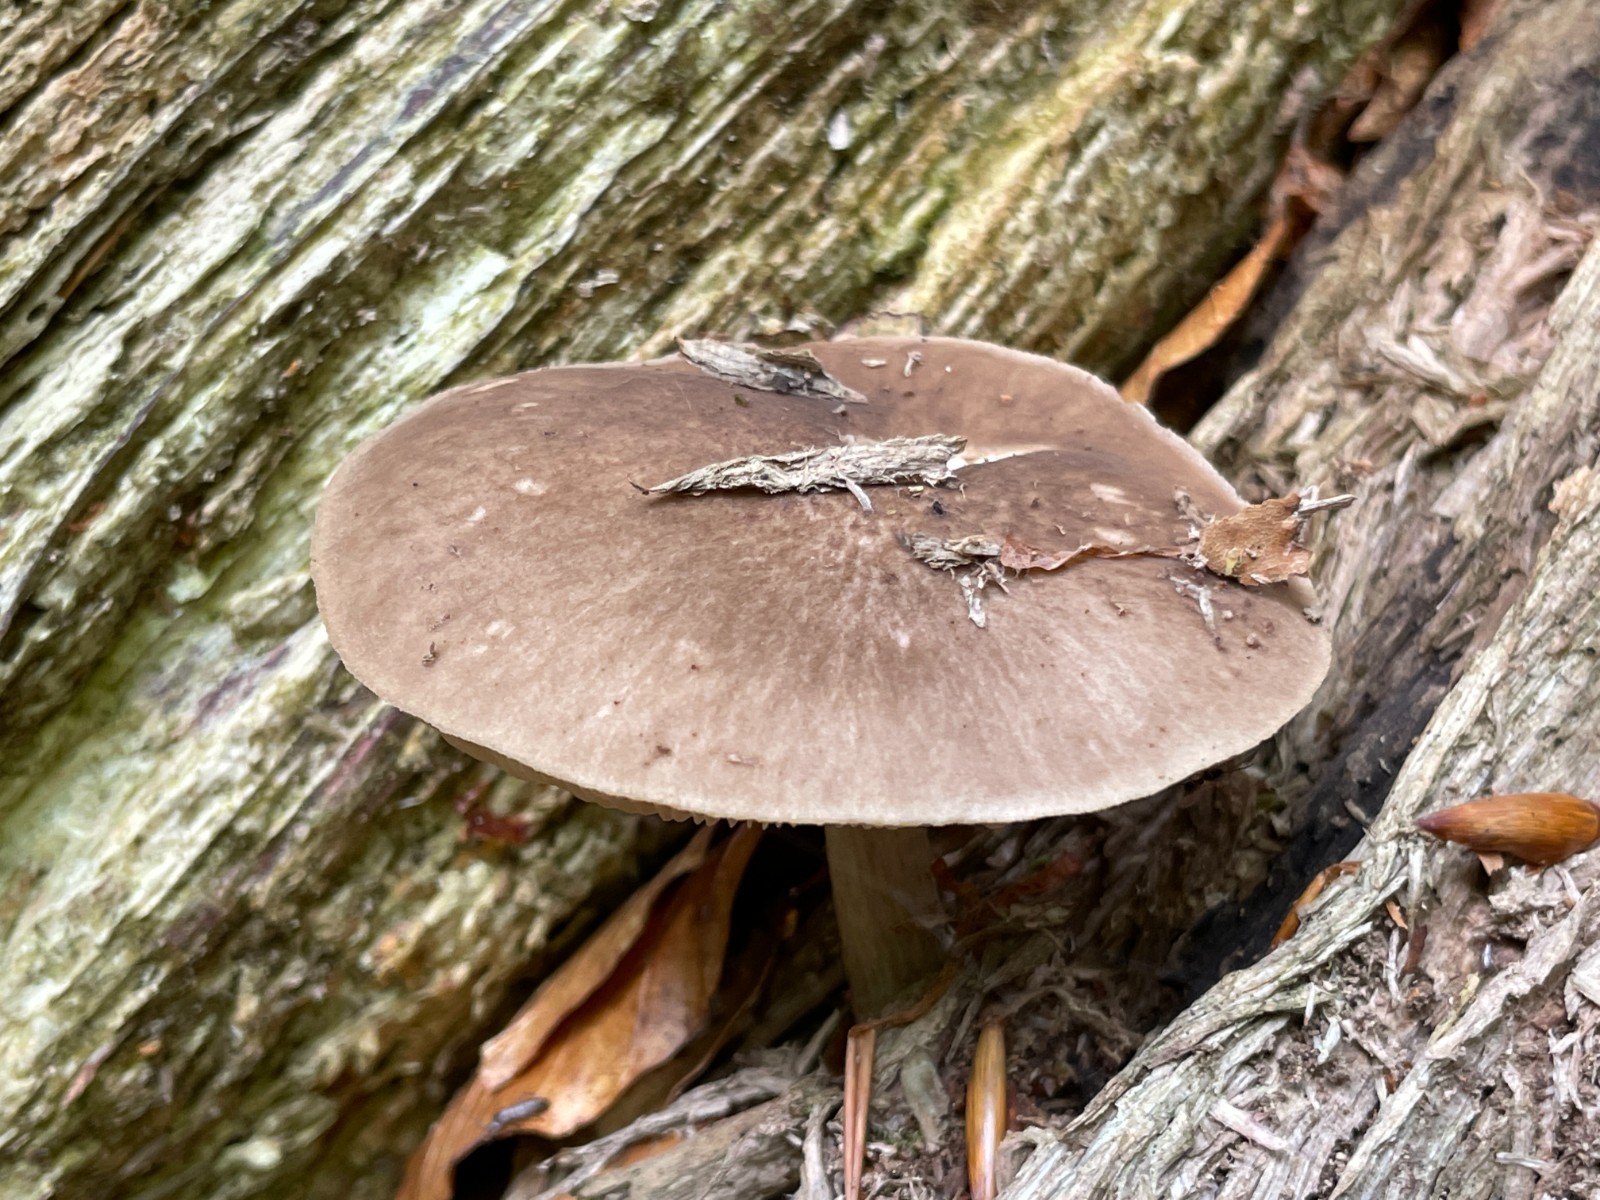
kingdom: Fungi
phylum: Basidiomycota
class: Agaricomycetes
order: Agaricales
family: Pluteaceae
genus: Pluteus
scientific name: Pluteus cervinus
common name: sodfarvet skærmhat
